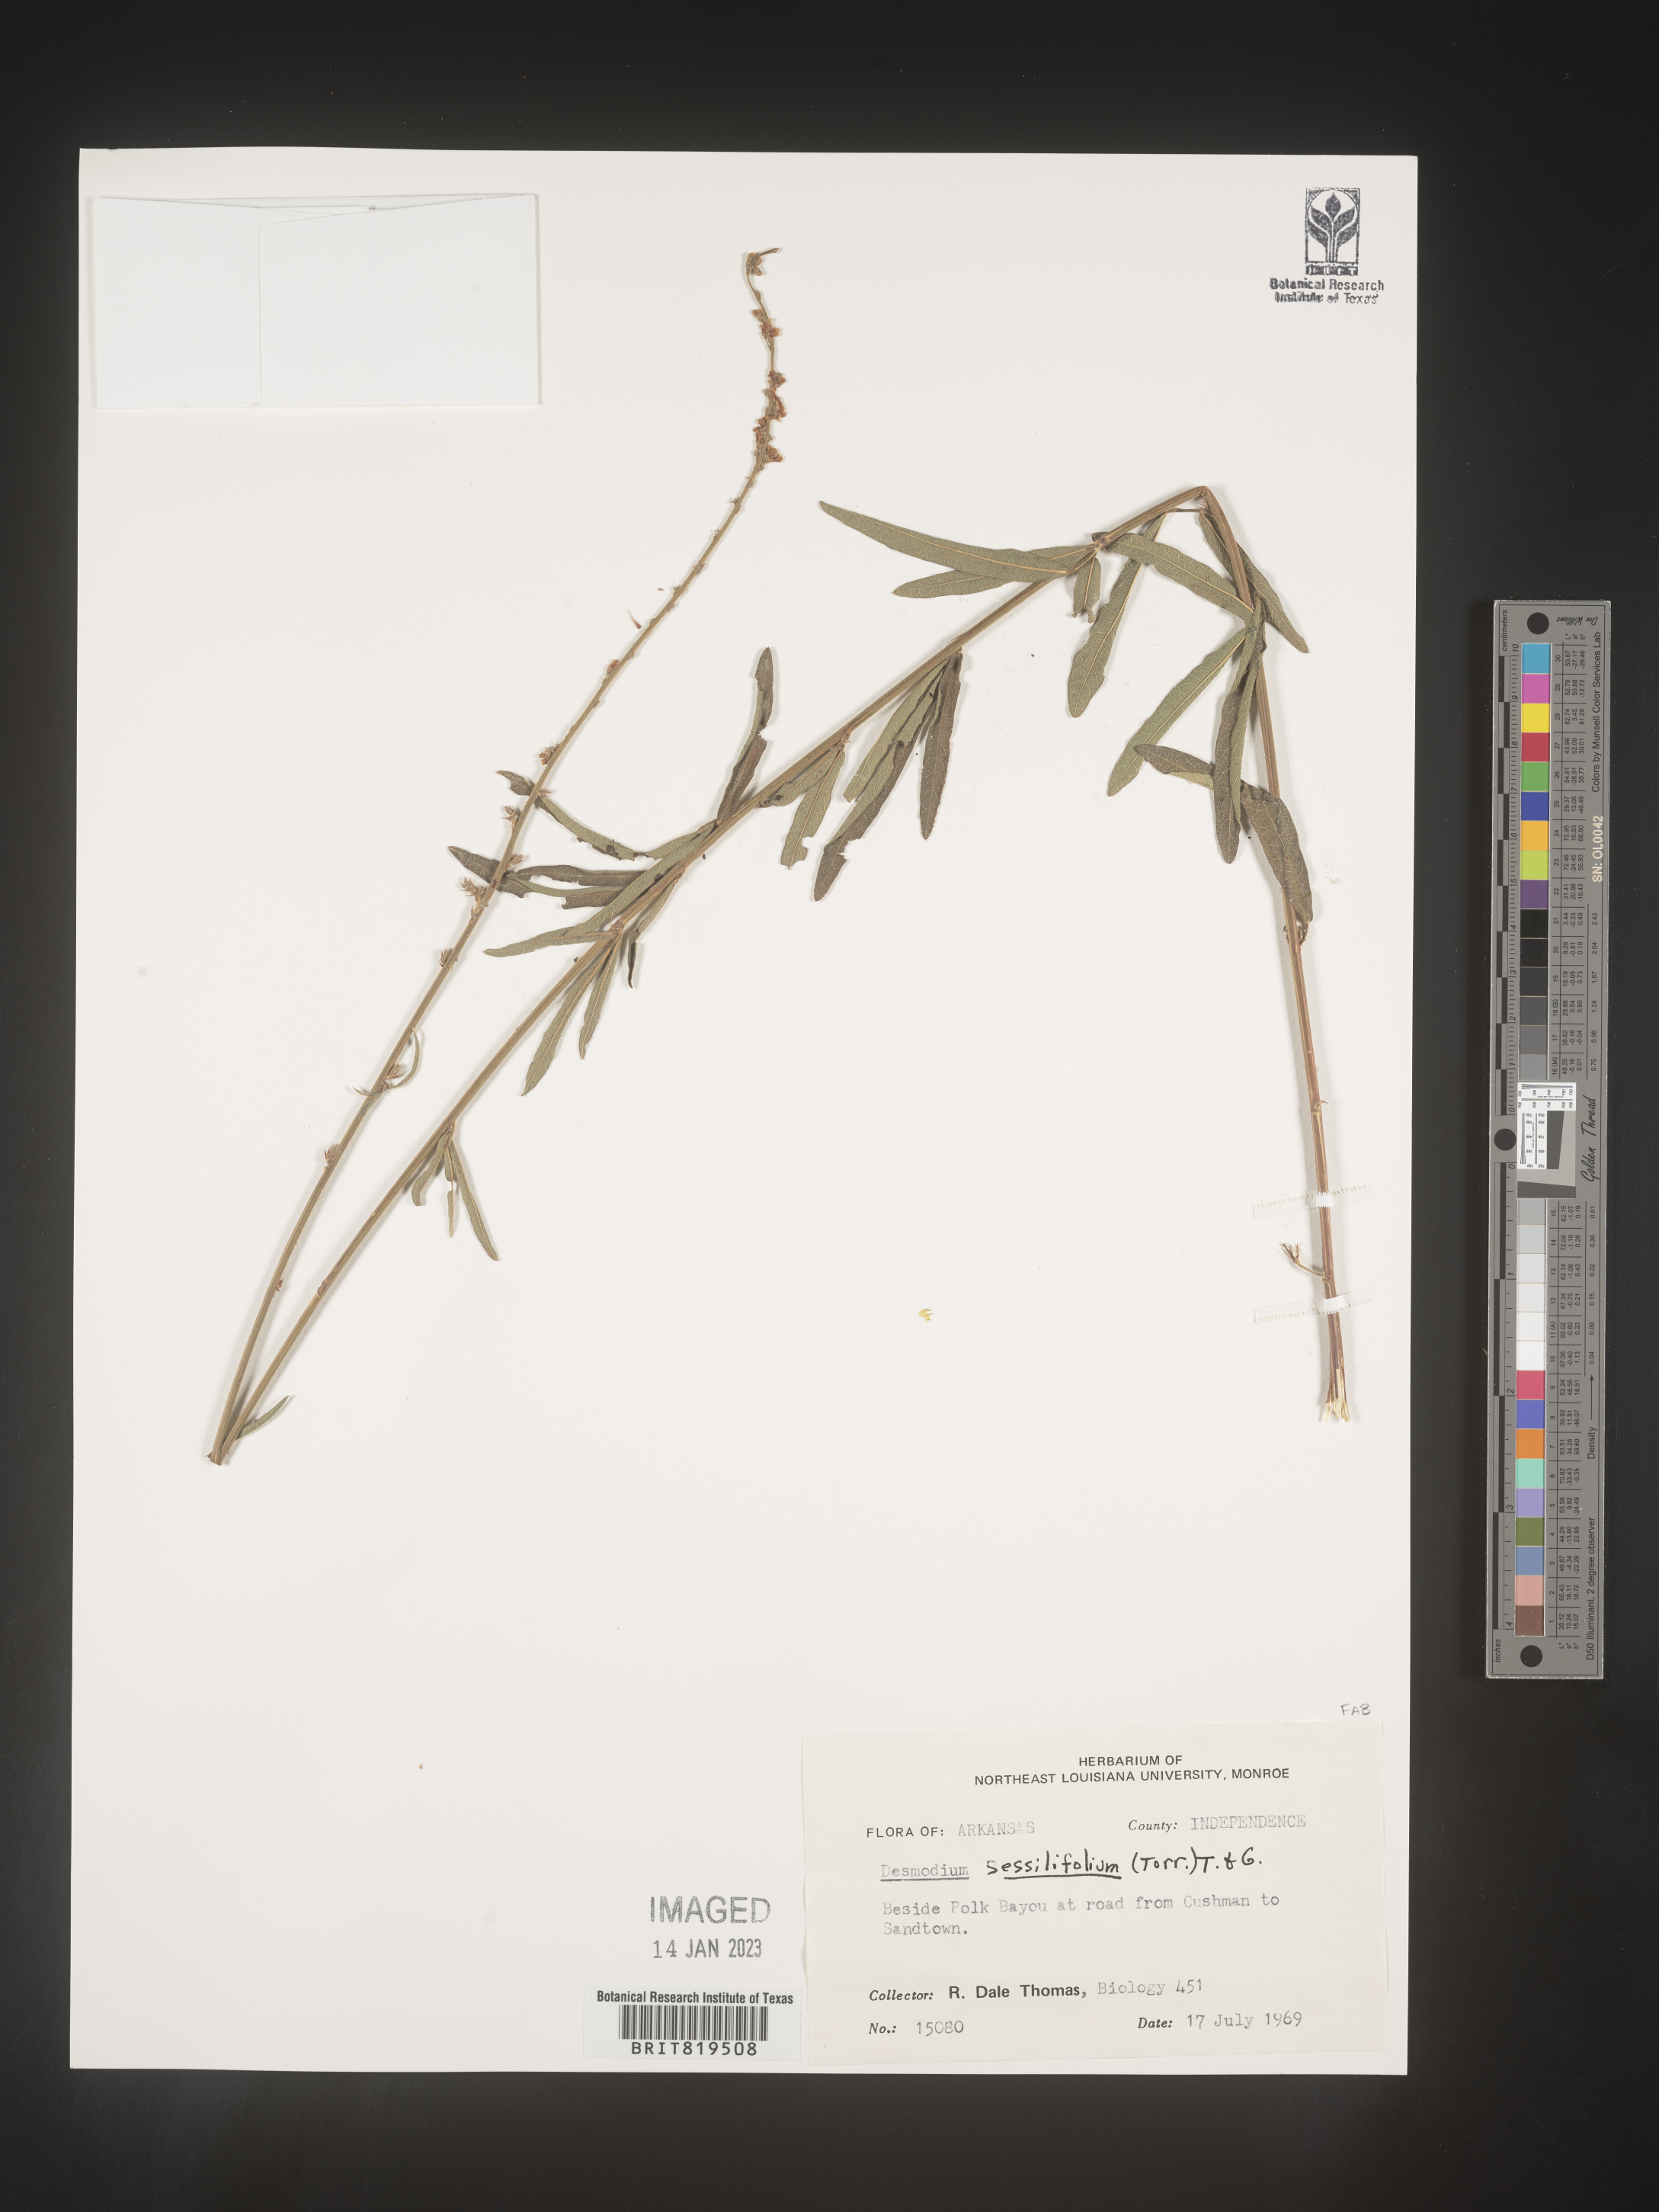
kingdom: Plantae
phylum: Tracheophyta
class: Magnoliopsida
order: Fabales
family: Fabaceae
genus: Desmodium
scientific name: Desmodium sessilifolium
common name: Sessile tick-clover
